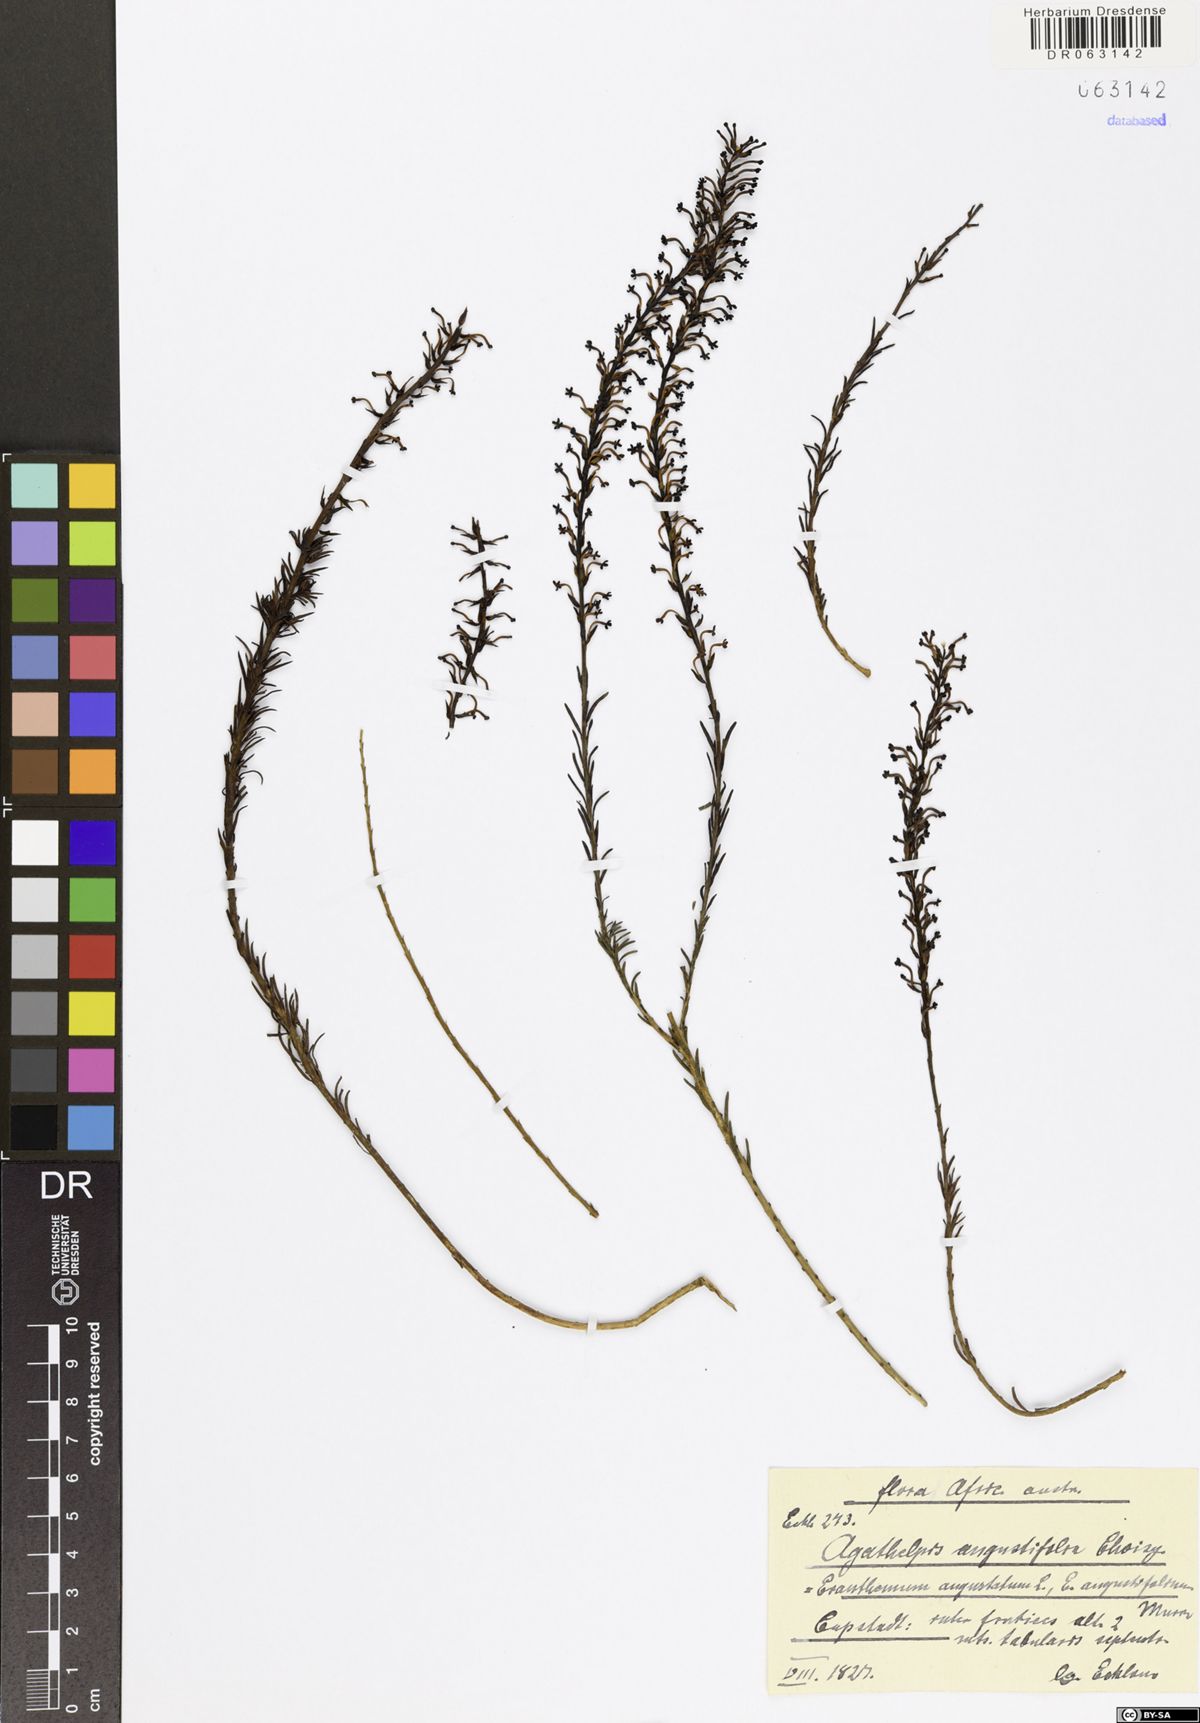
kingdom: Plantae
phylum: Tracheophyta
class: Magnoliopsida
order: Lamiales
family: Scrophulariaceae
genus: Microdon
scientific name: Microdon dubius
